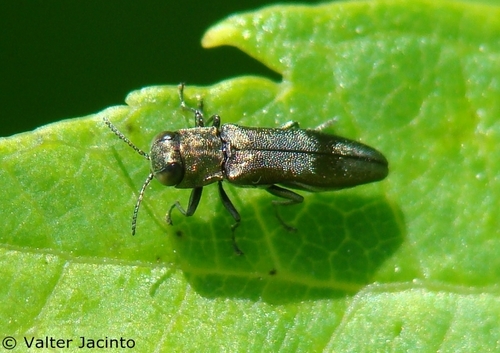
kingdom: Animalia
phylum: Arthropoda
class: Insecta
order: Coleoptera
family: Buprestidae
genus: Agrilus
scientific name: Agrilus derasofasciatus
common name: Metallic wood-boring beetle
